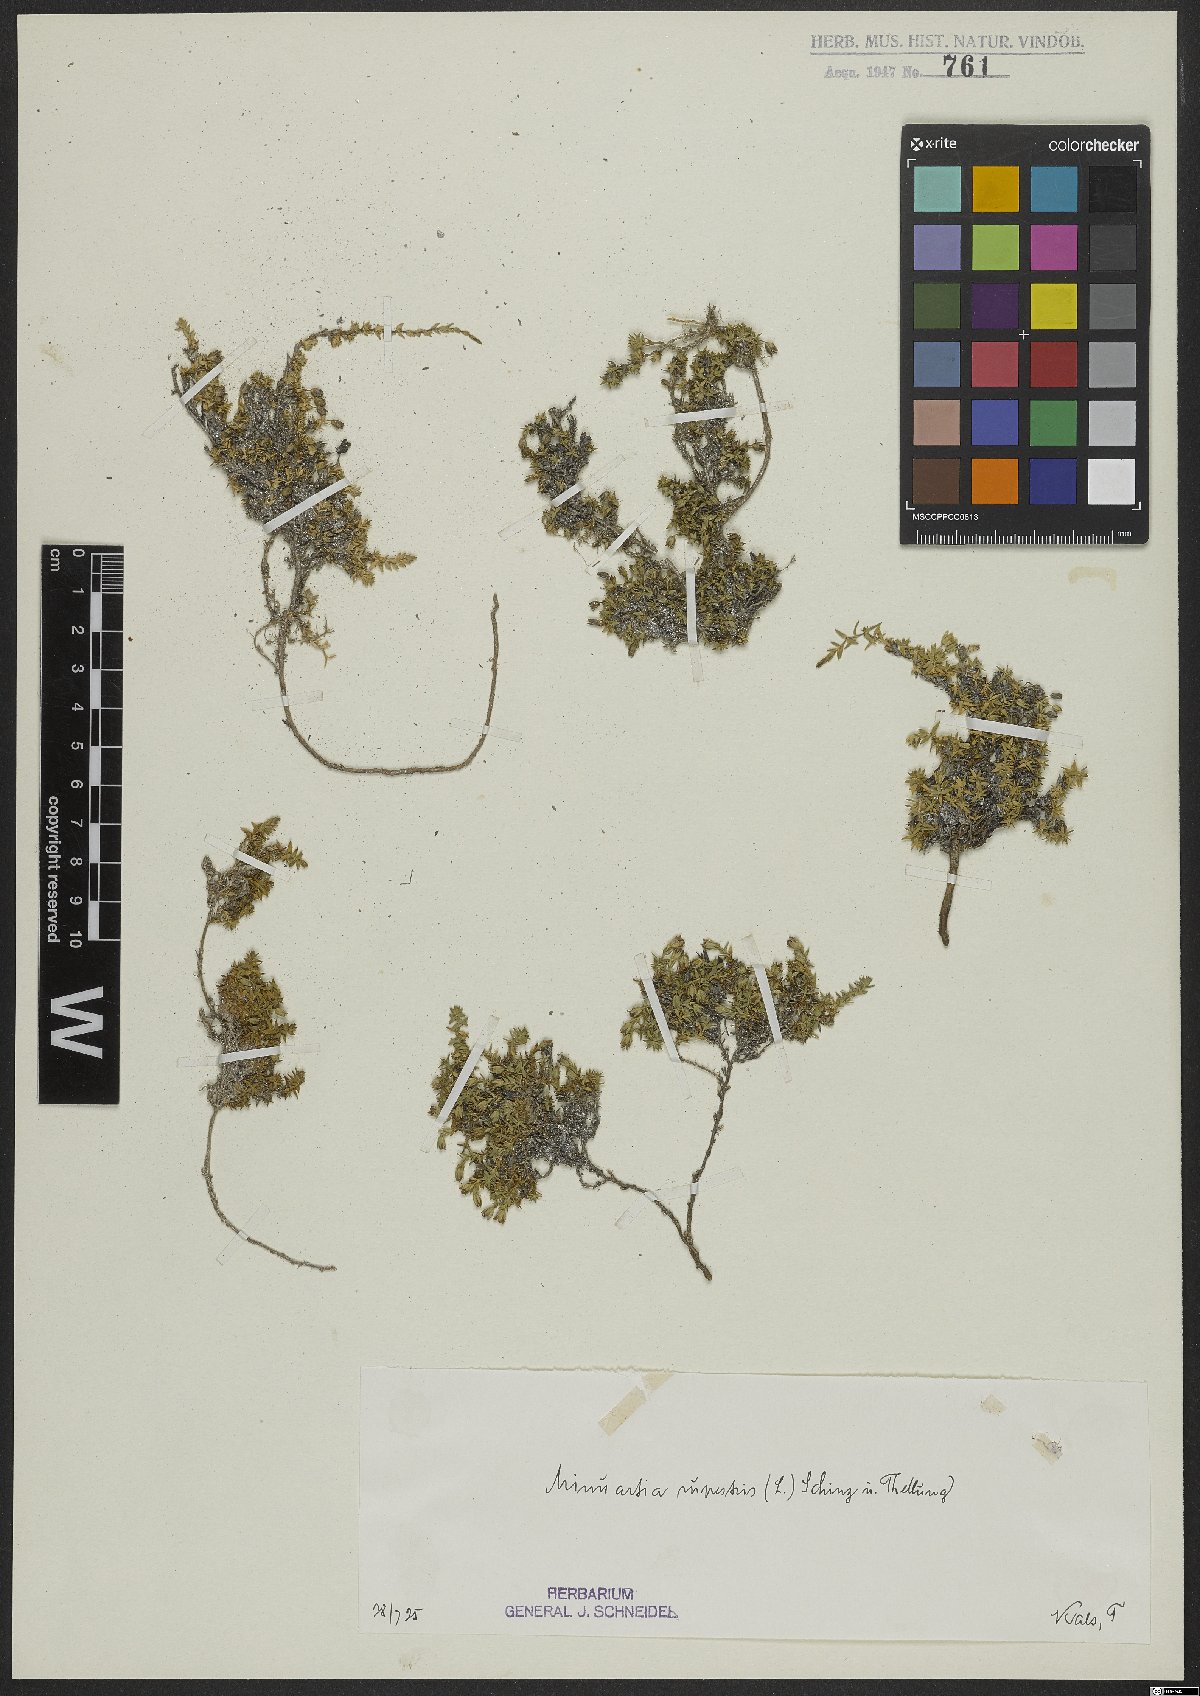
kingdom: Plantae
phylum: Tracheophyta
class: Magnoliopsida
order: Caryophyllales
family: Caryophyllaceae
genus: Facchinia
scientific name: Facchinia rupestris
